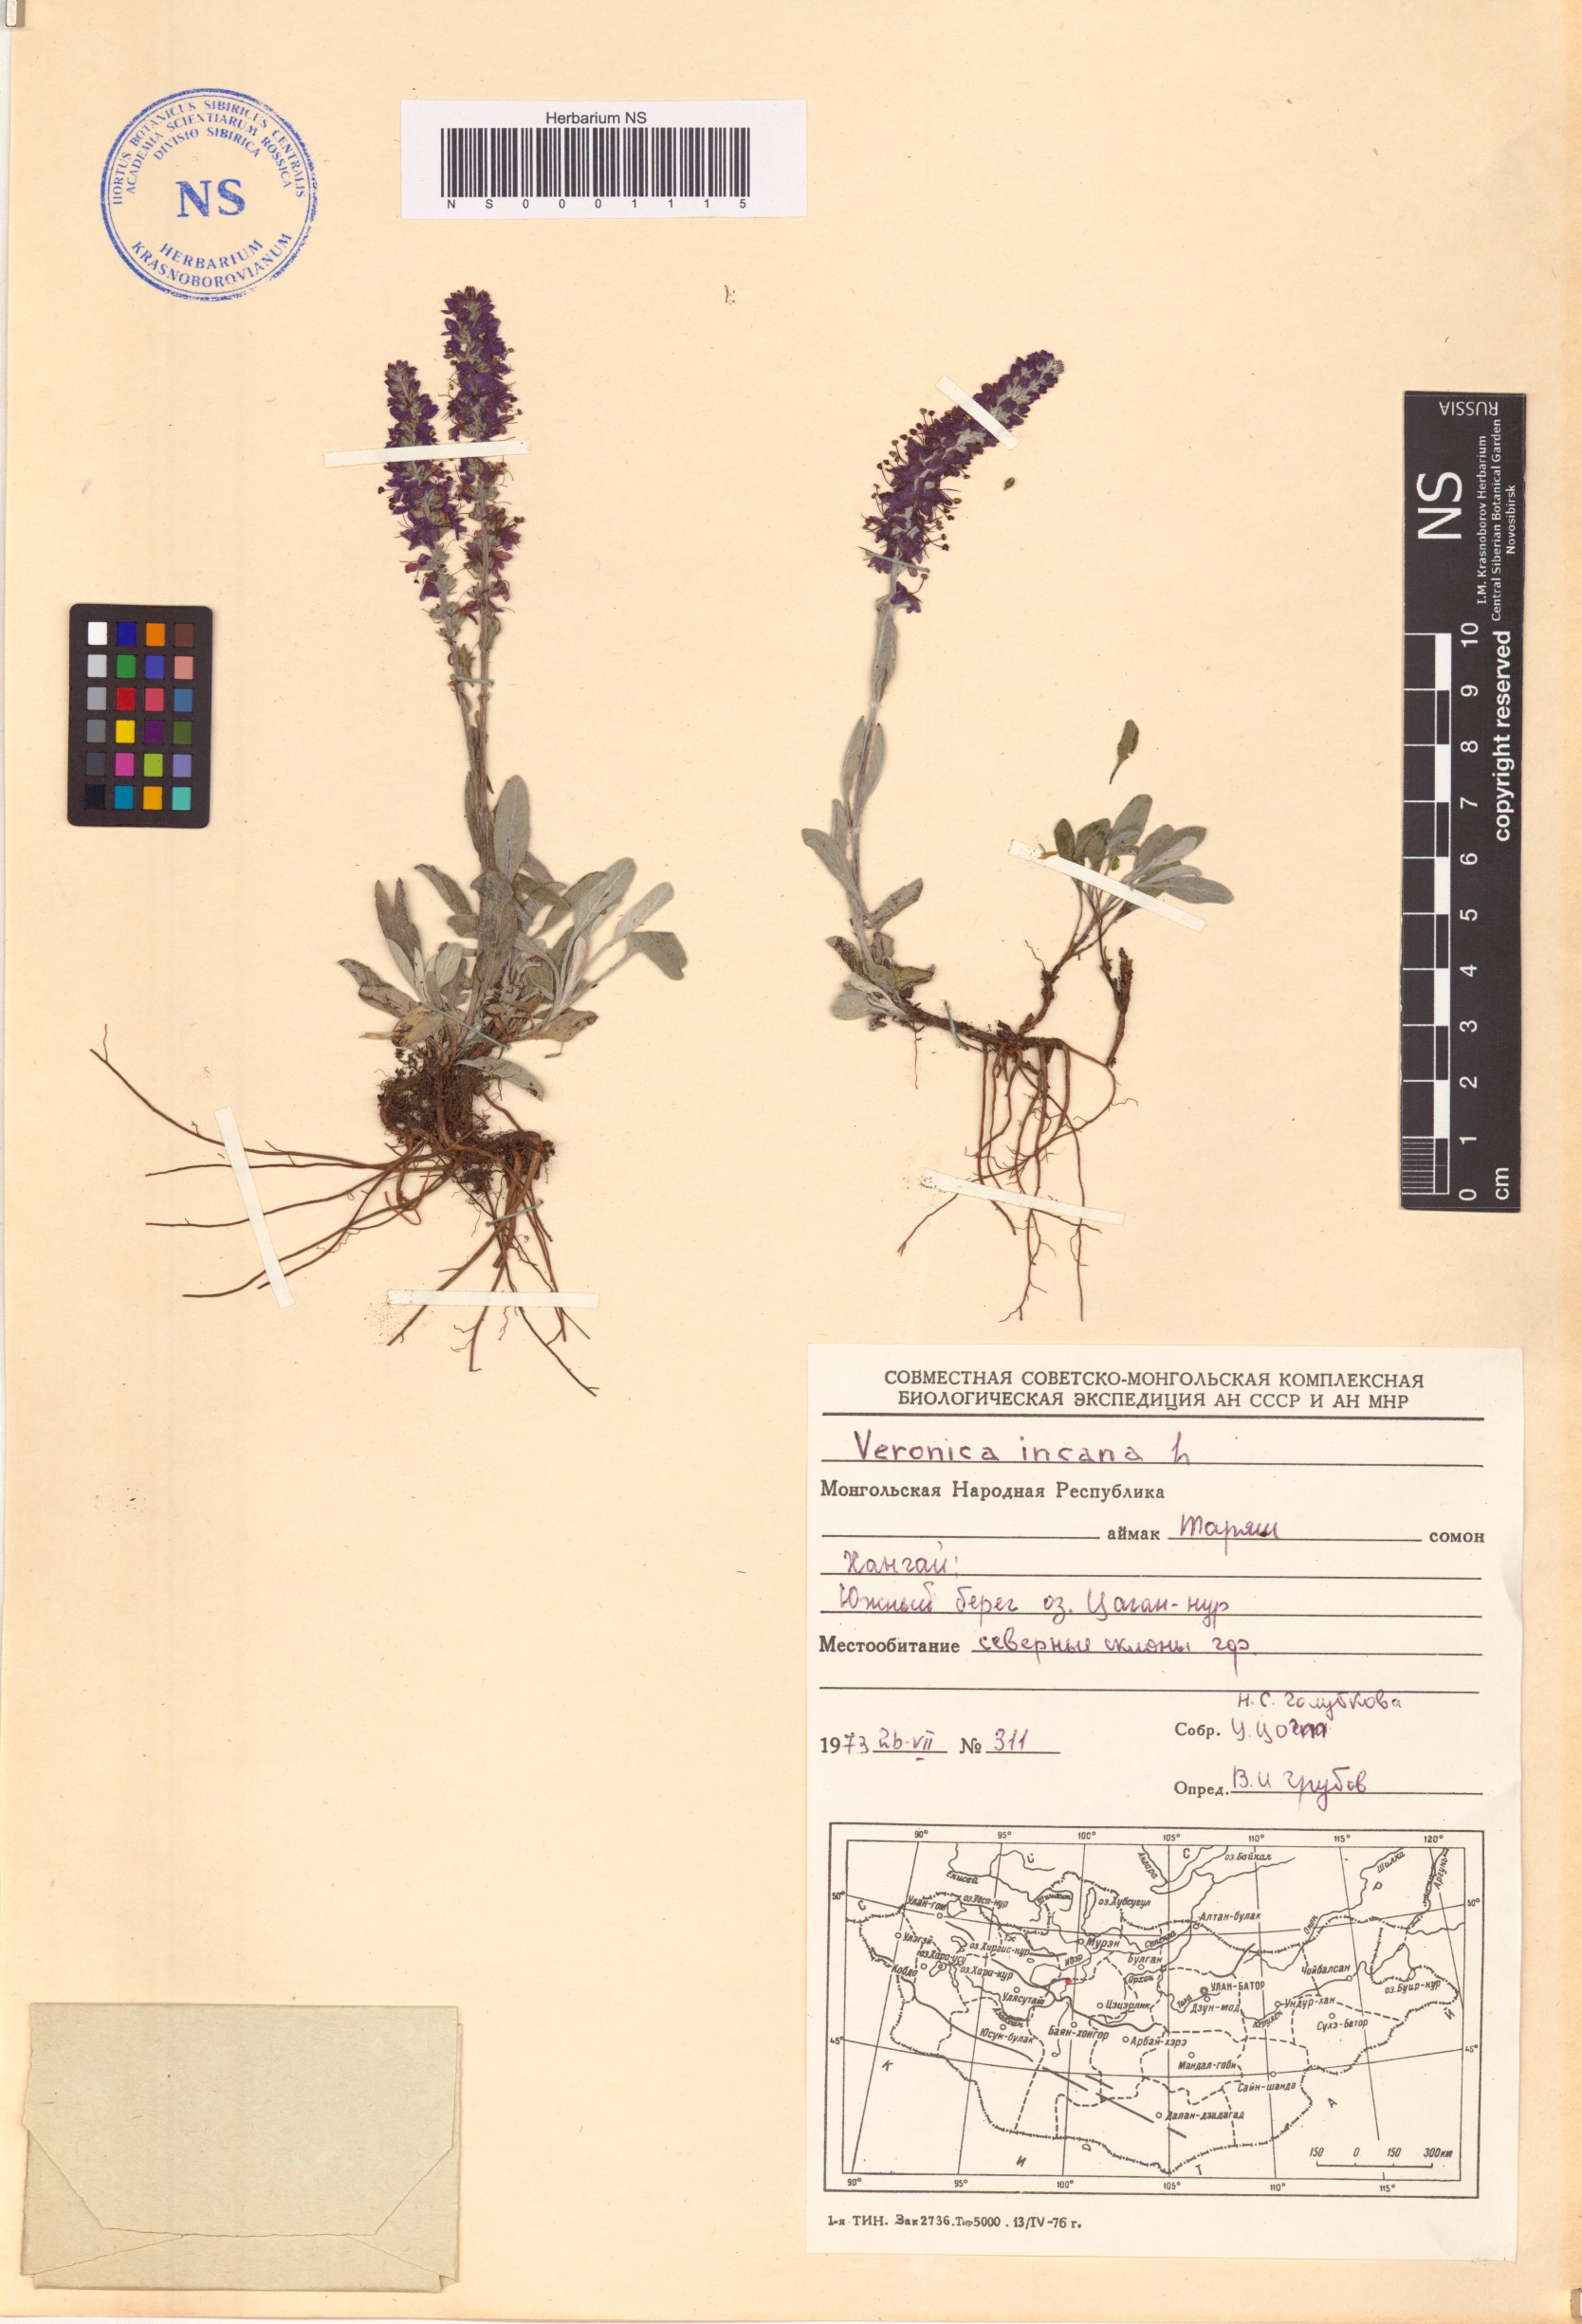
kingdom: Plantae
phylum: Tracheophyta
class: Magnoliopsida
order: Lamiales
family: Plantaginaceae
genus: Veronica
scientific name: Veronica incana
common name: Silver speedwell
